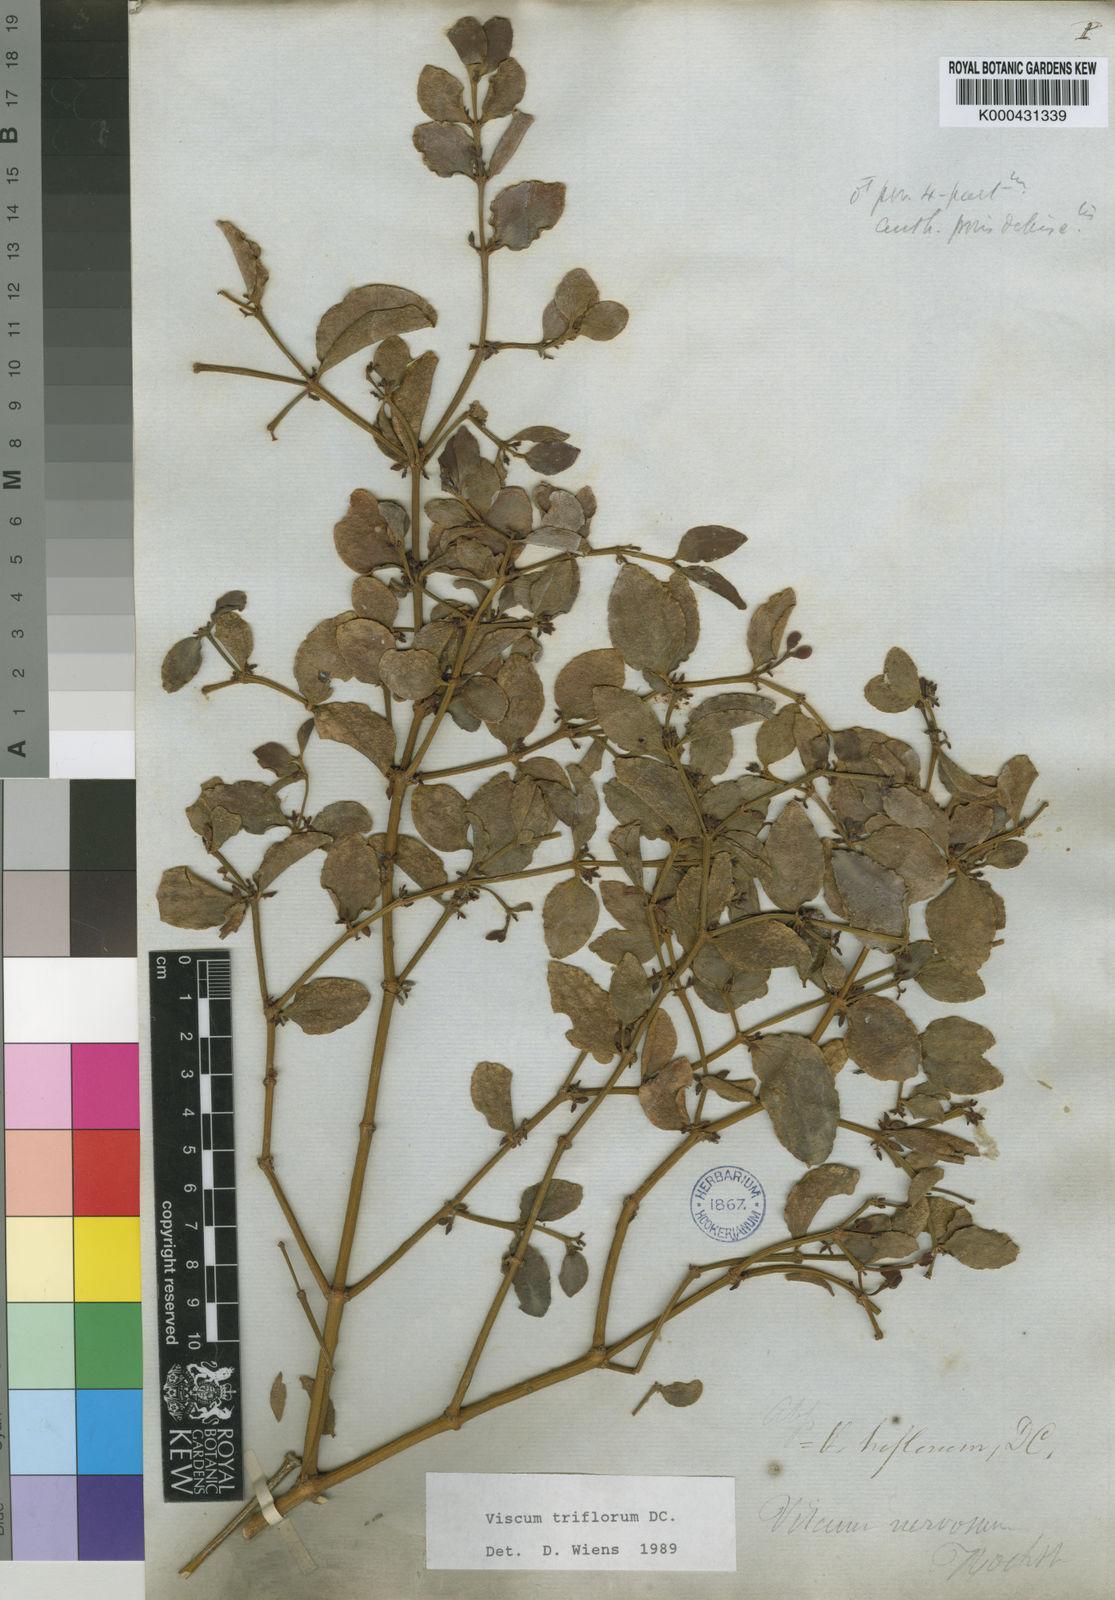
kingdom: Plantae
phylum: Tracheophyta
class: Magnoliopsida
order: Santalales
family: Viscaceae
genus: Viscum
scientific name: Viscum triflorum
